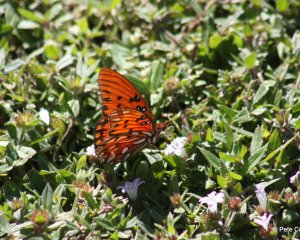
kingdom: Animalia
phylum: Arthropoda
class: Insecta
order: Lepidoptera
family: Nymphalidae
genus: Dione
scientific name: Dione vanillae
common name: Gulf Fritillary
